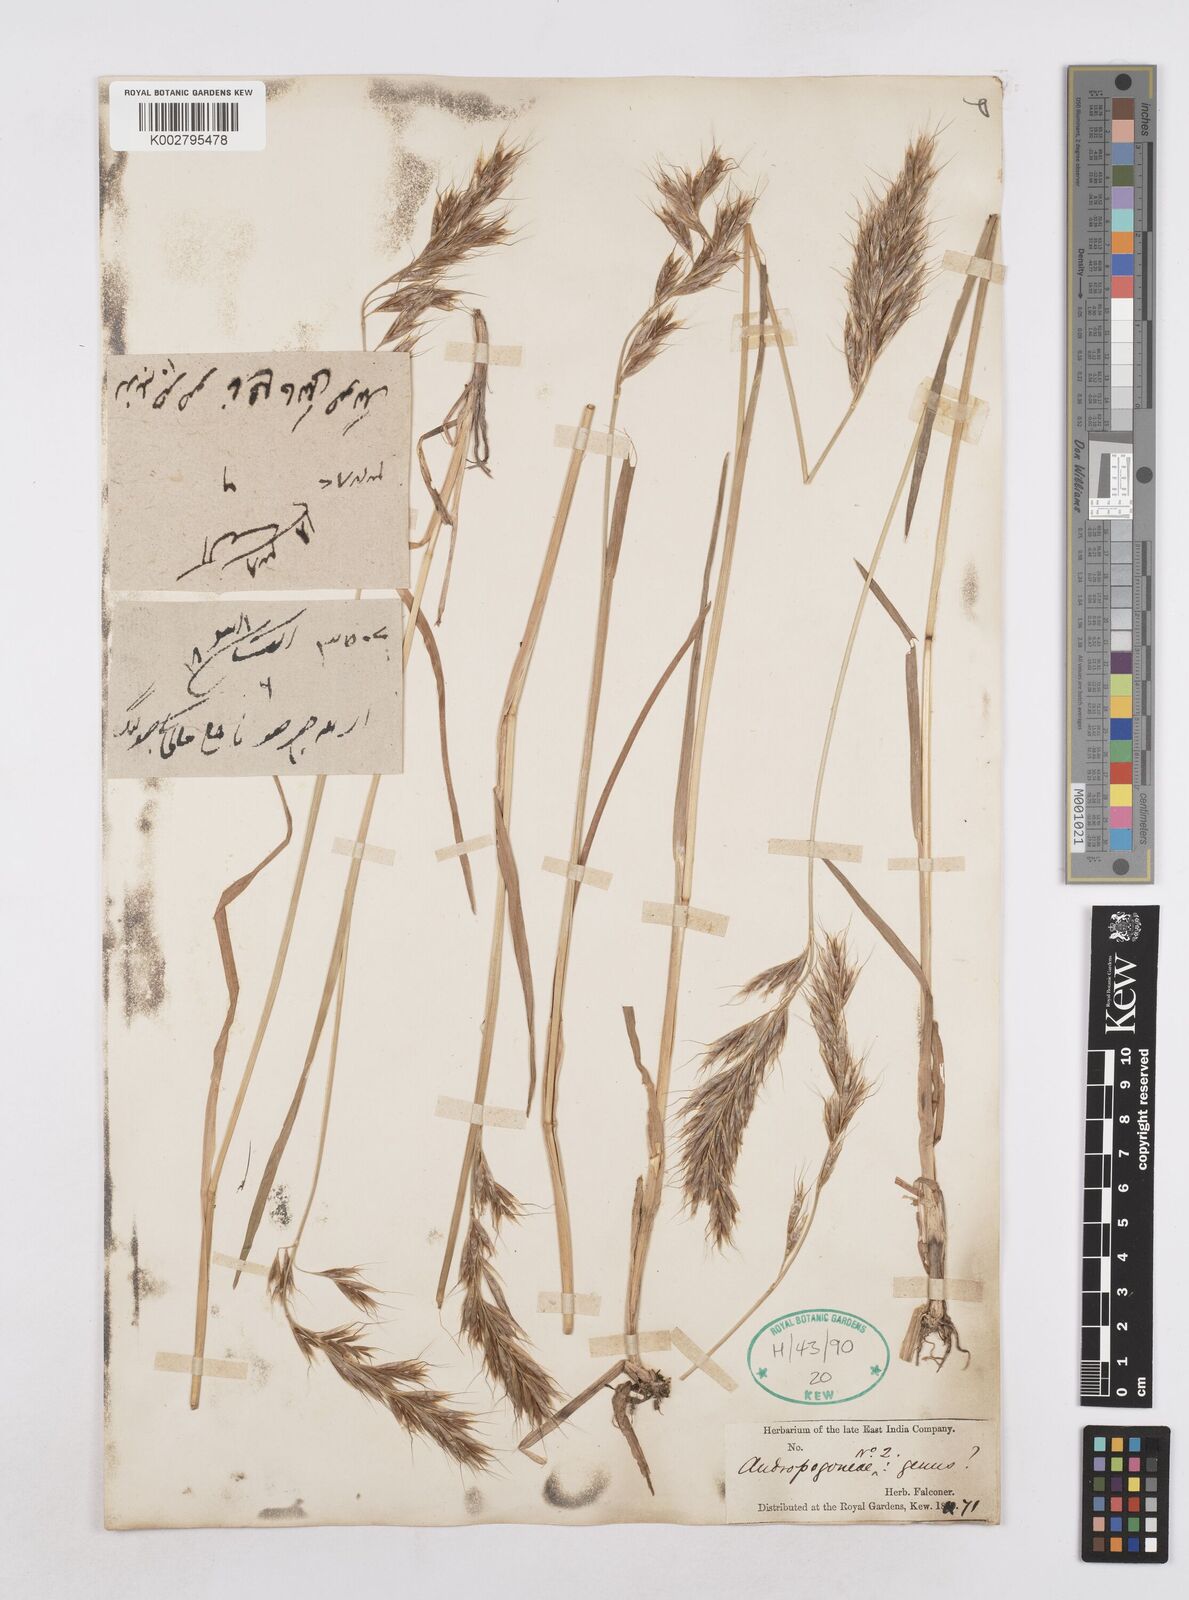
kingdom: Plantae
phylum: Tracheophyta
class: Liliopsida
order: Poales
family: Poaceae
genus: Helictochloa
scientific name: Helictochloa pratensis
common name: Meadow oat grass
